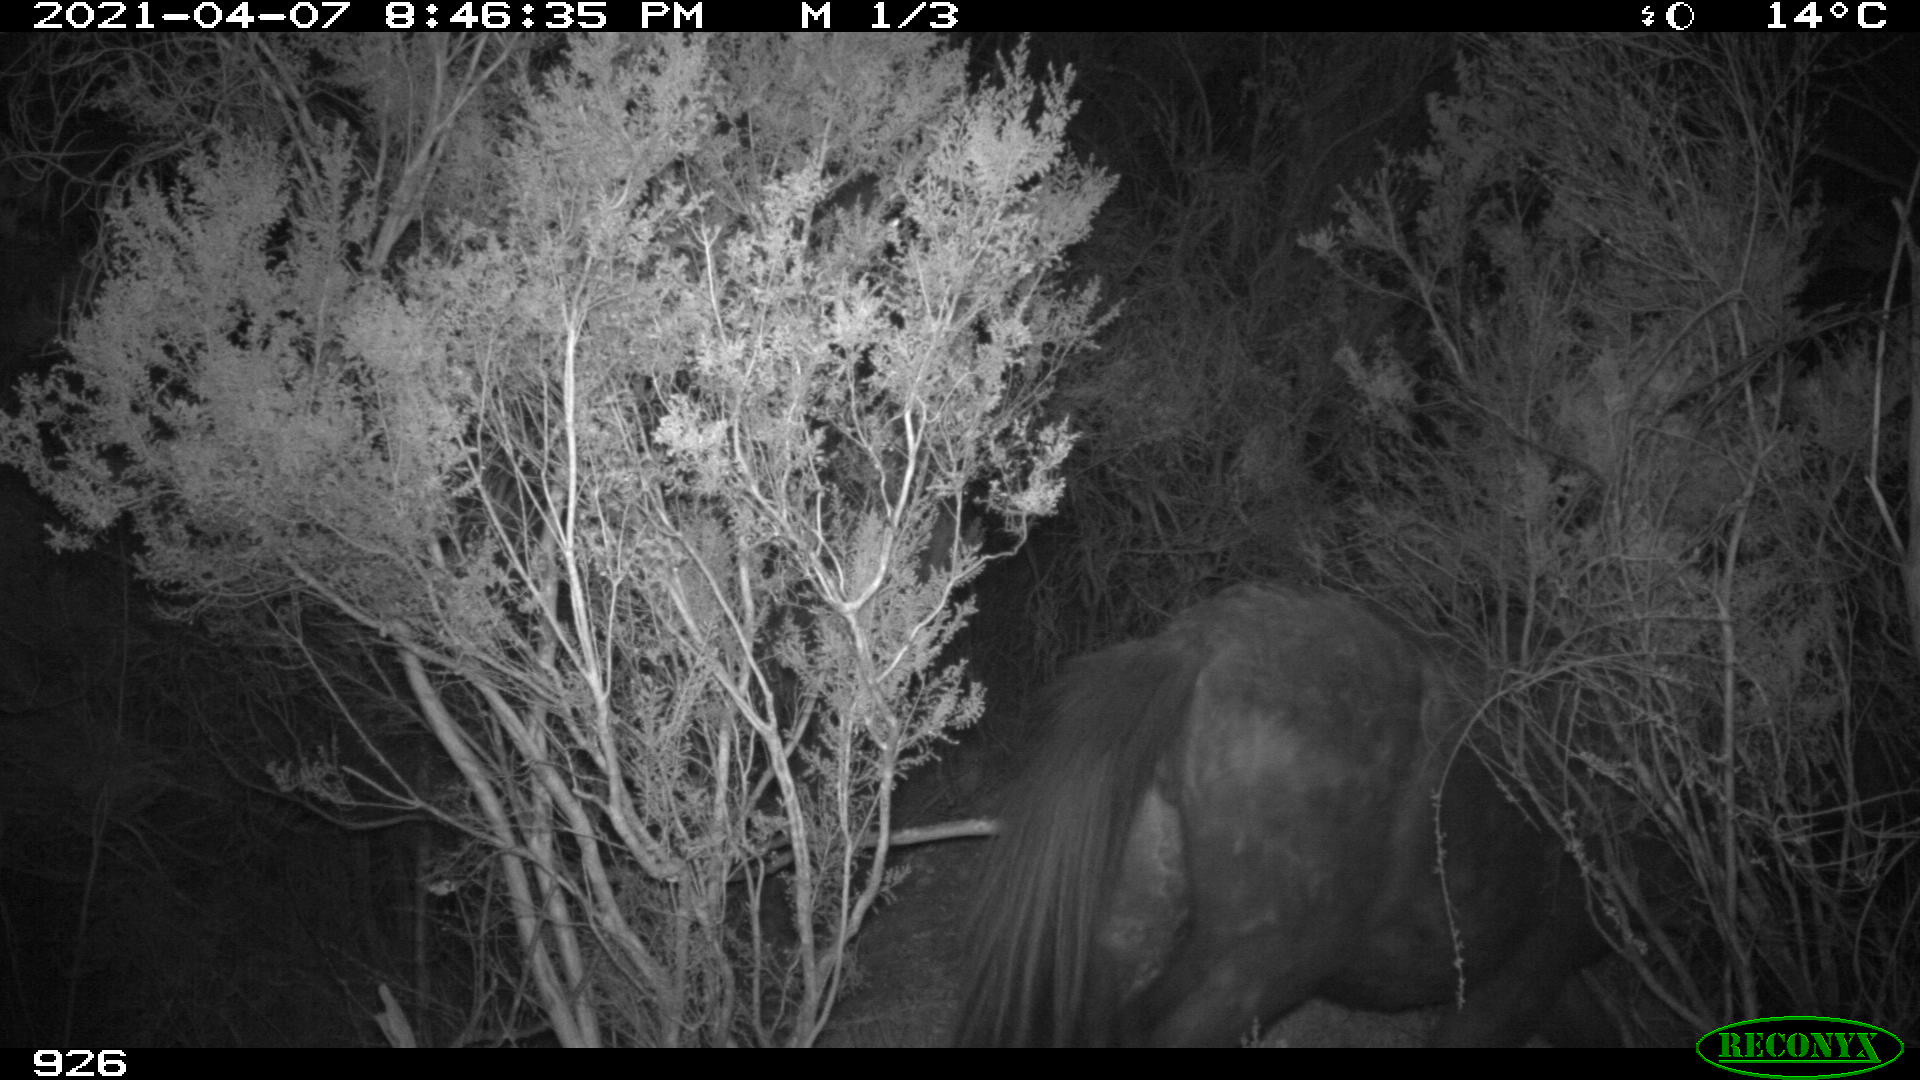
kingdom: Animalia
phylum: Chordata
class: Mammalia
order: Perissodactyla
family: Equidae
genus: Equus
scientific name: Equus caballus
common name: Horse
